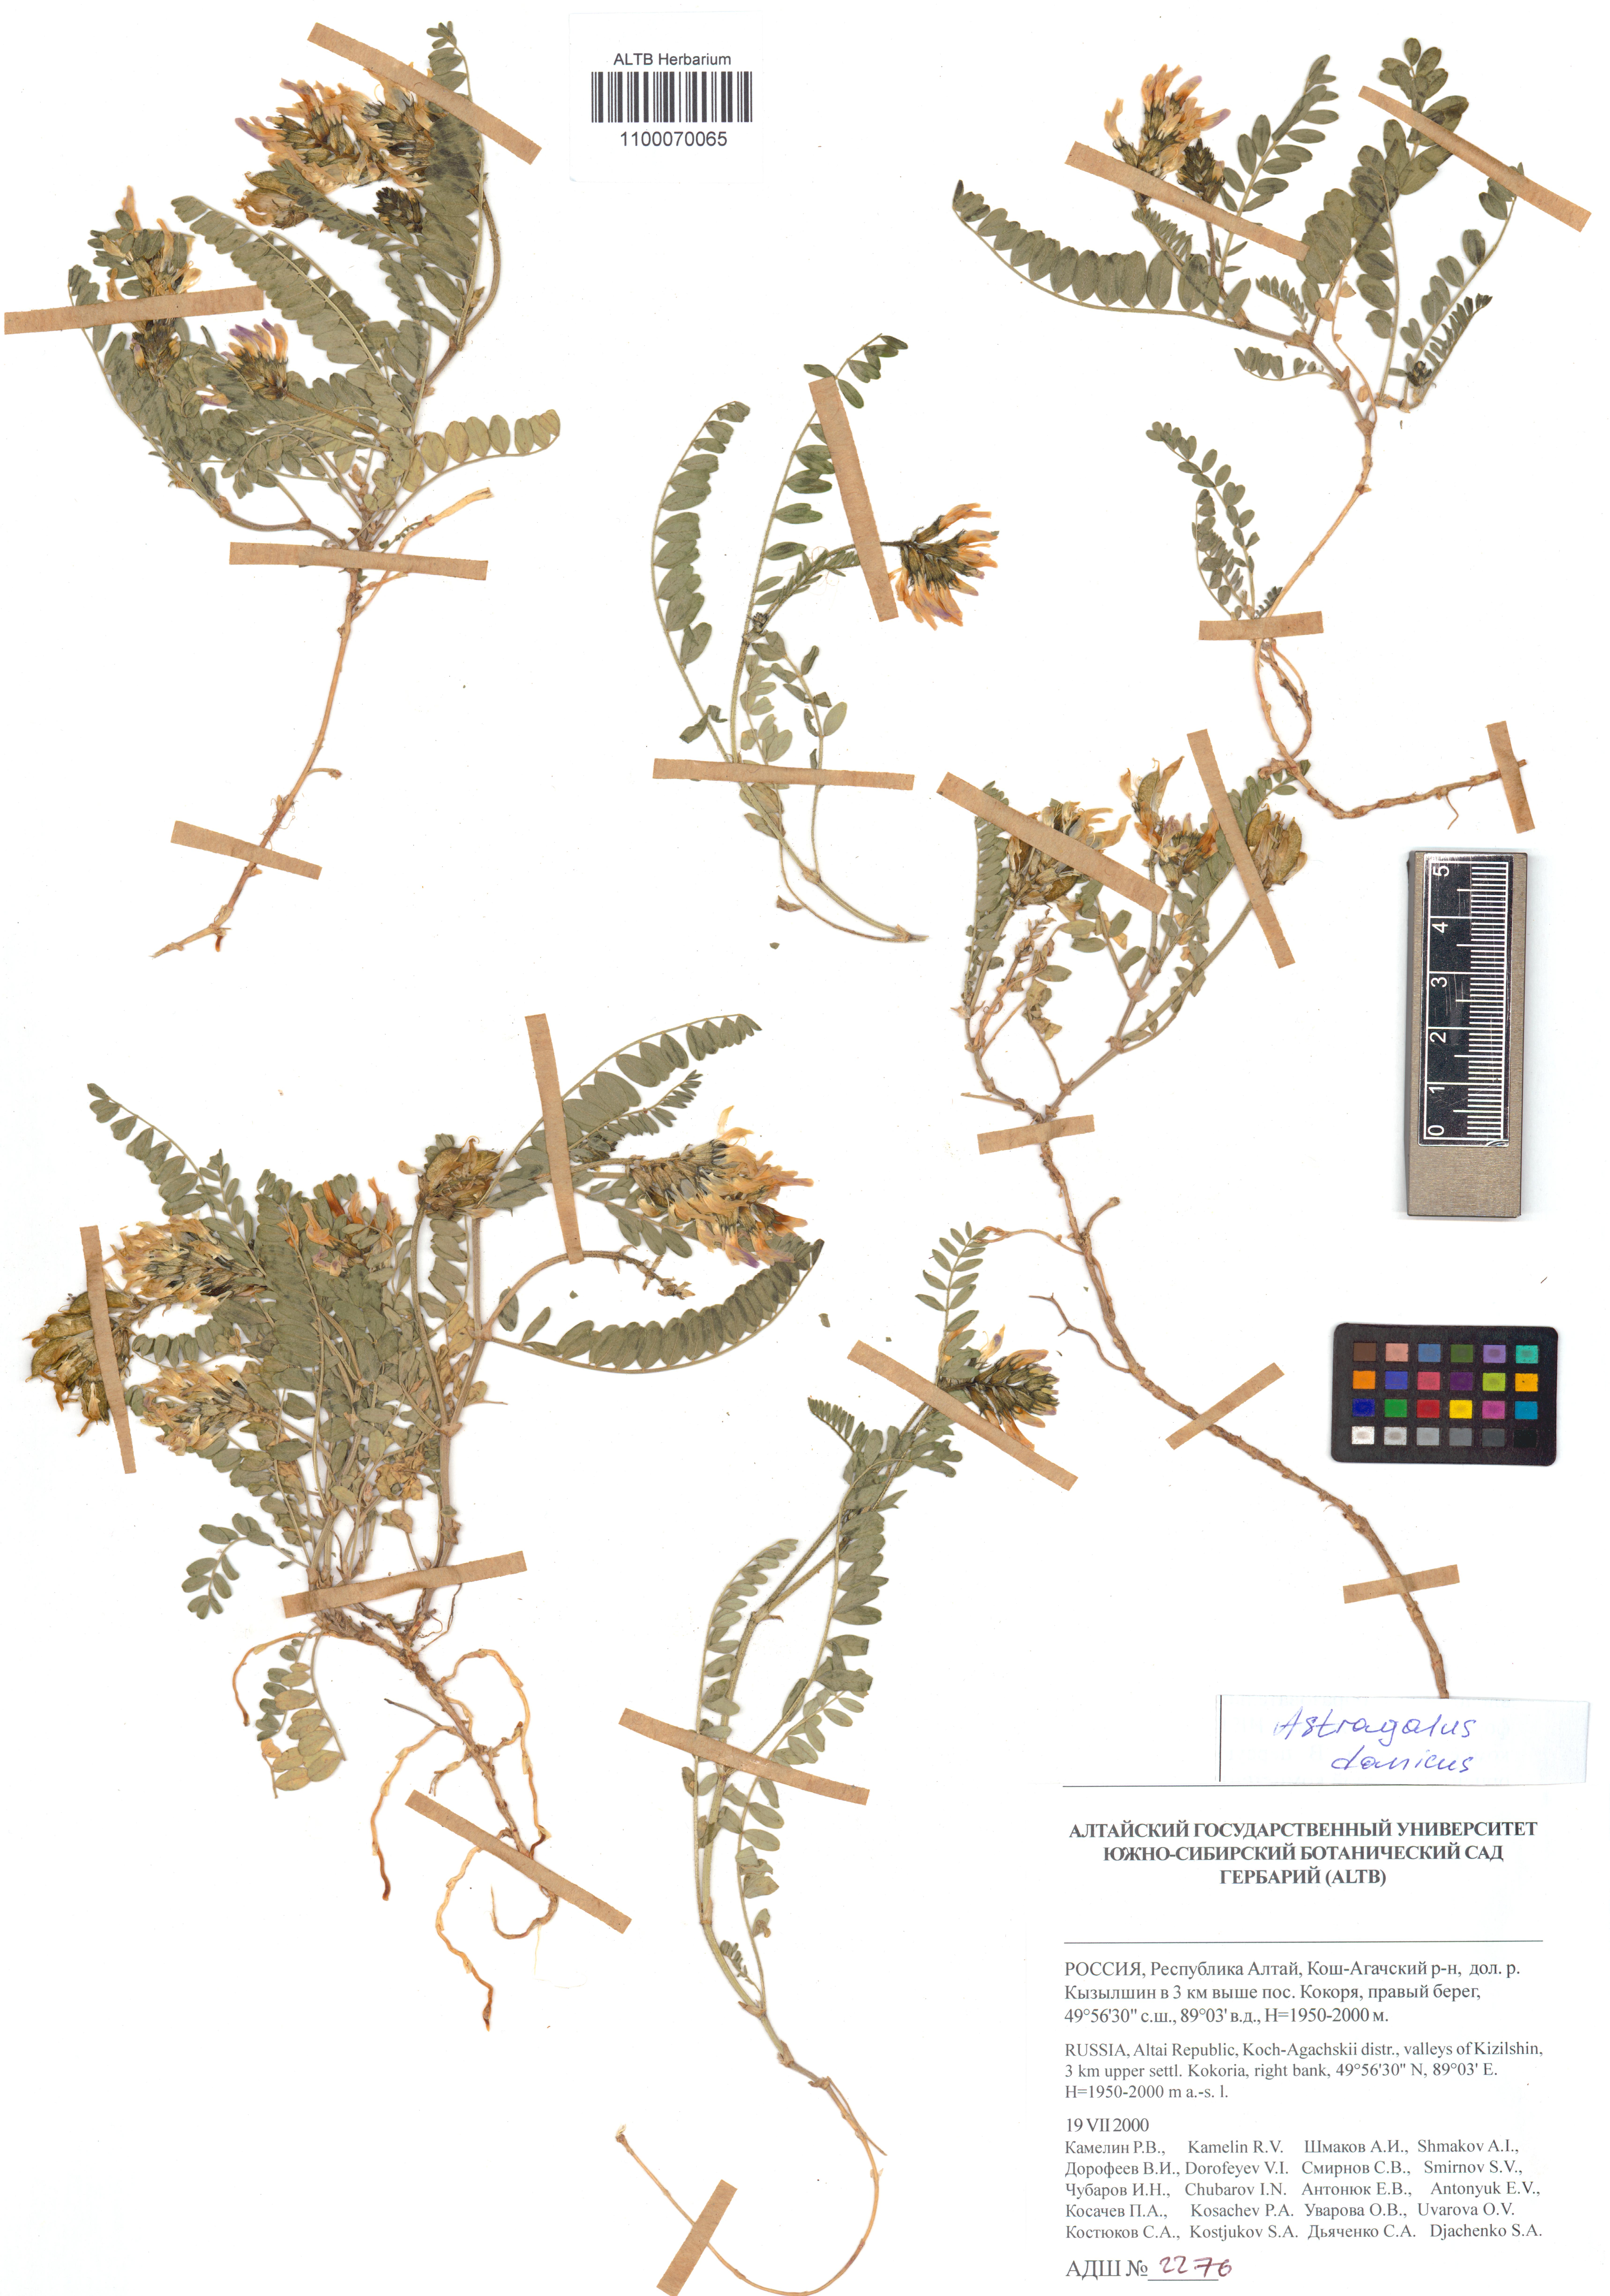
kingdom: Plantae
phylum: Tracheophyta
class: Magnoliopsida
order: Fabales
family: Fabaceae
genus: Astragalus
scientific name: Astragalus danicus
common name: Purple milk-vetch
